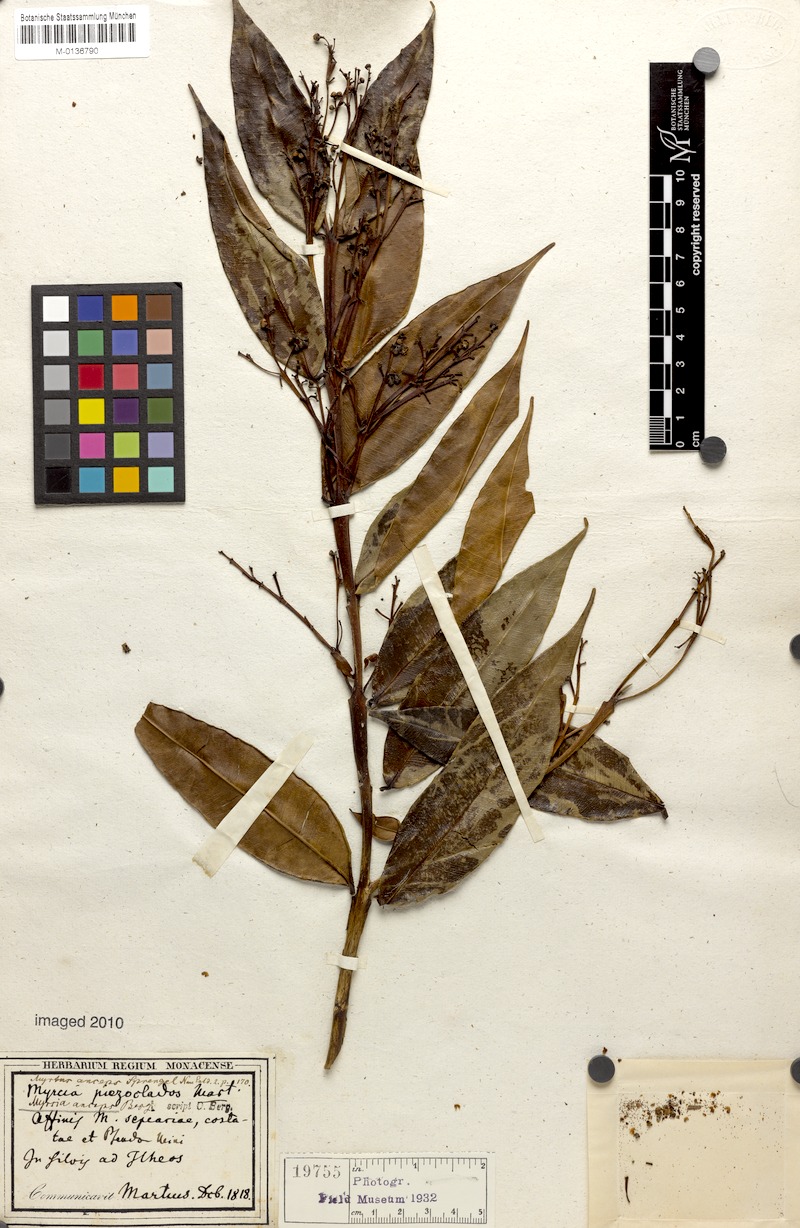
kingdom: Plantae
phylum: Tracheophyta
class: Magnoliopsida
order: Myrtales
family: Myrtaceae
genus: Myrcia
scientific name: Myrcia anceps
